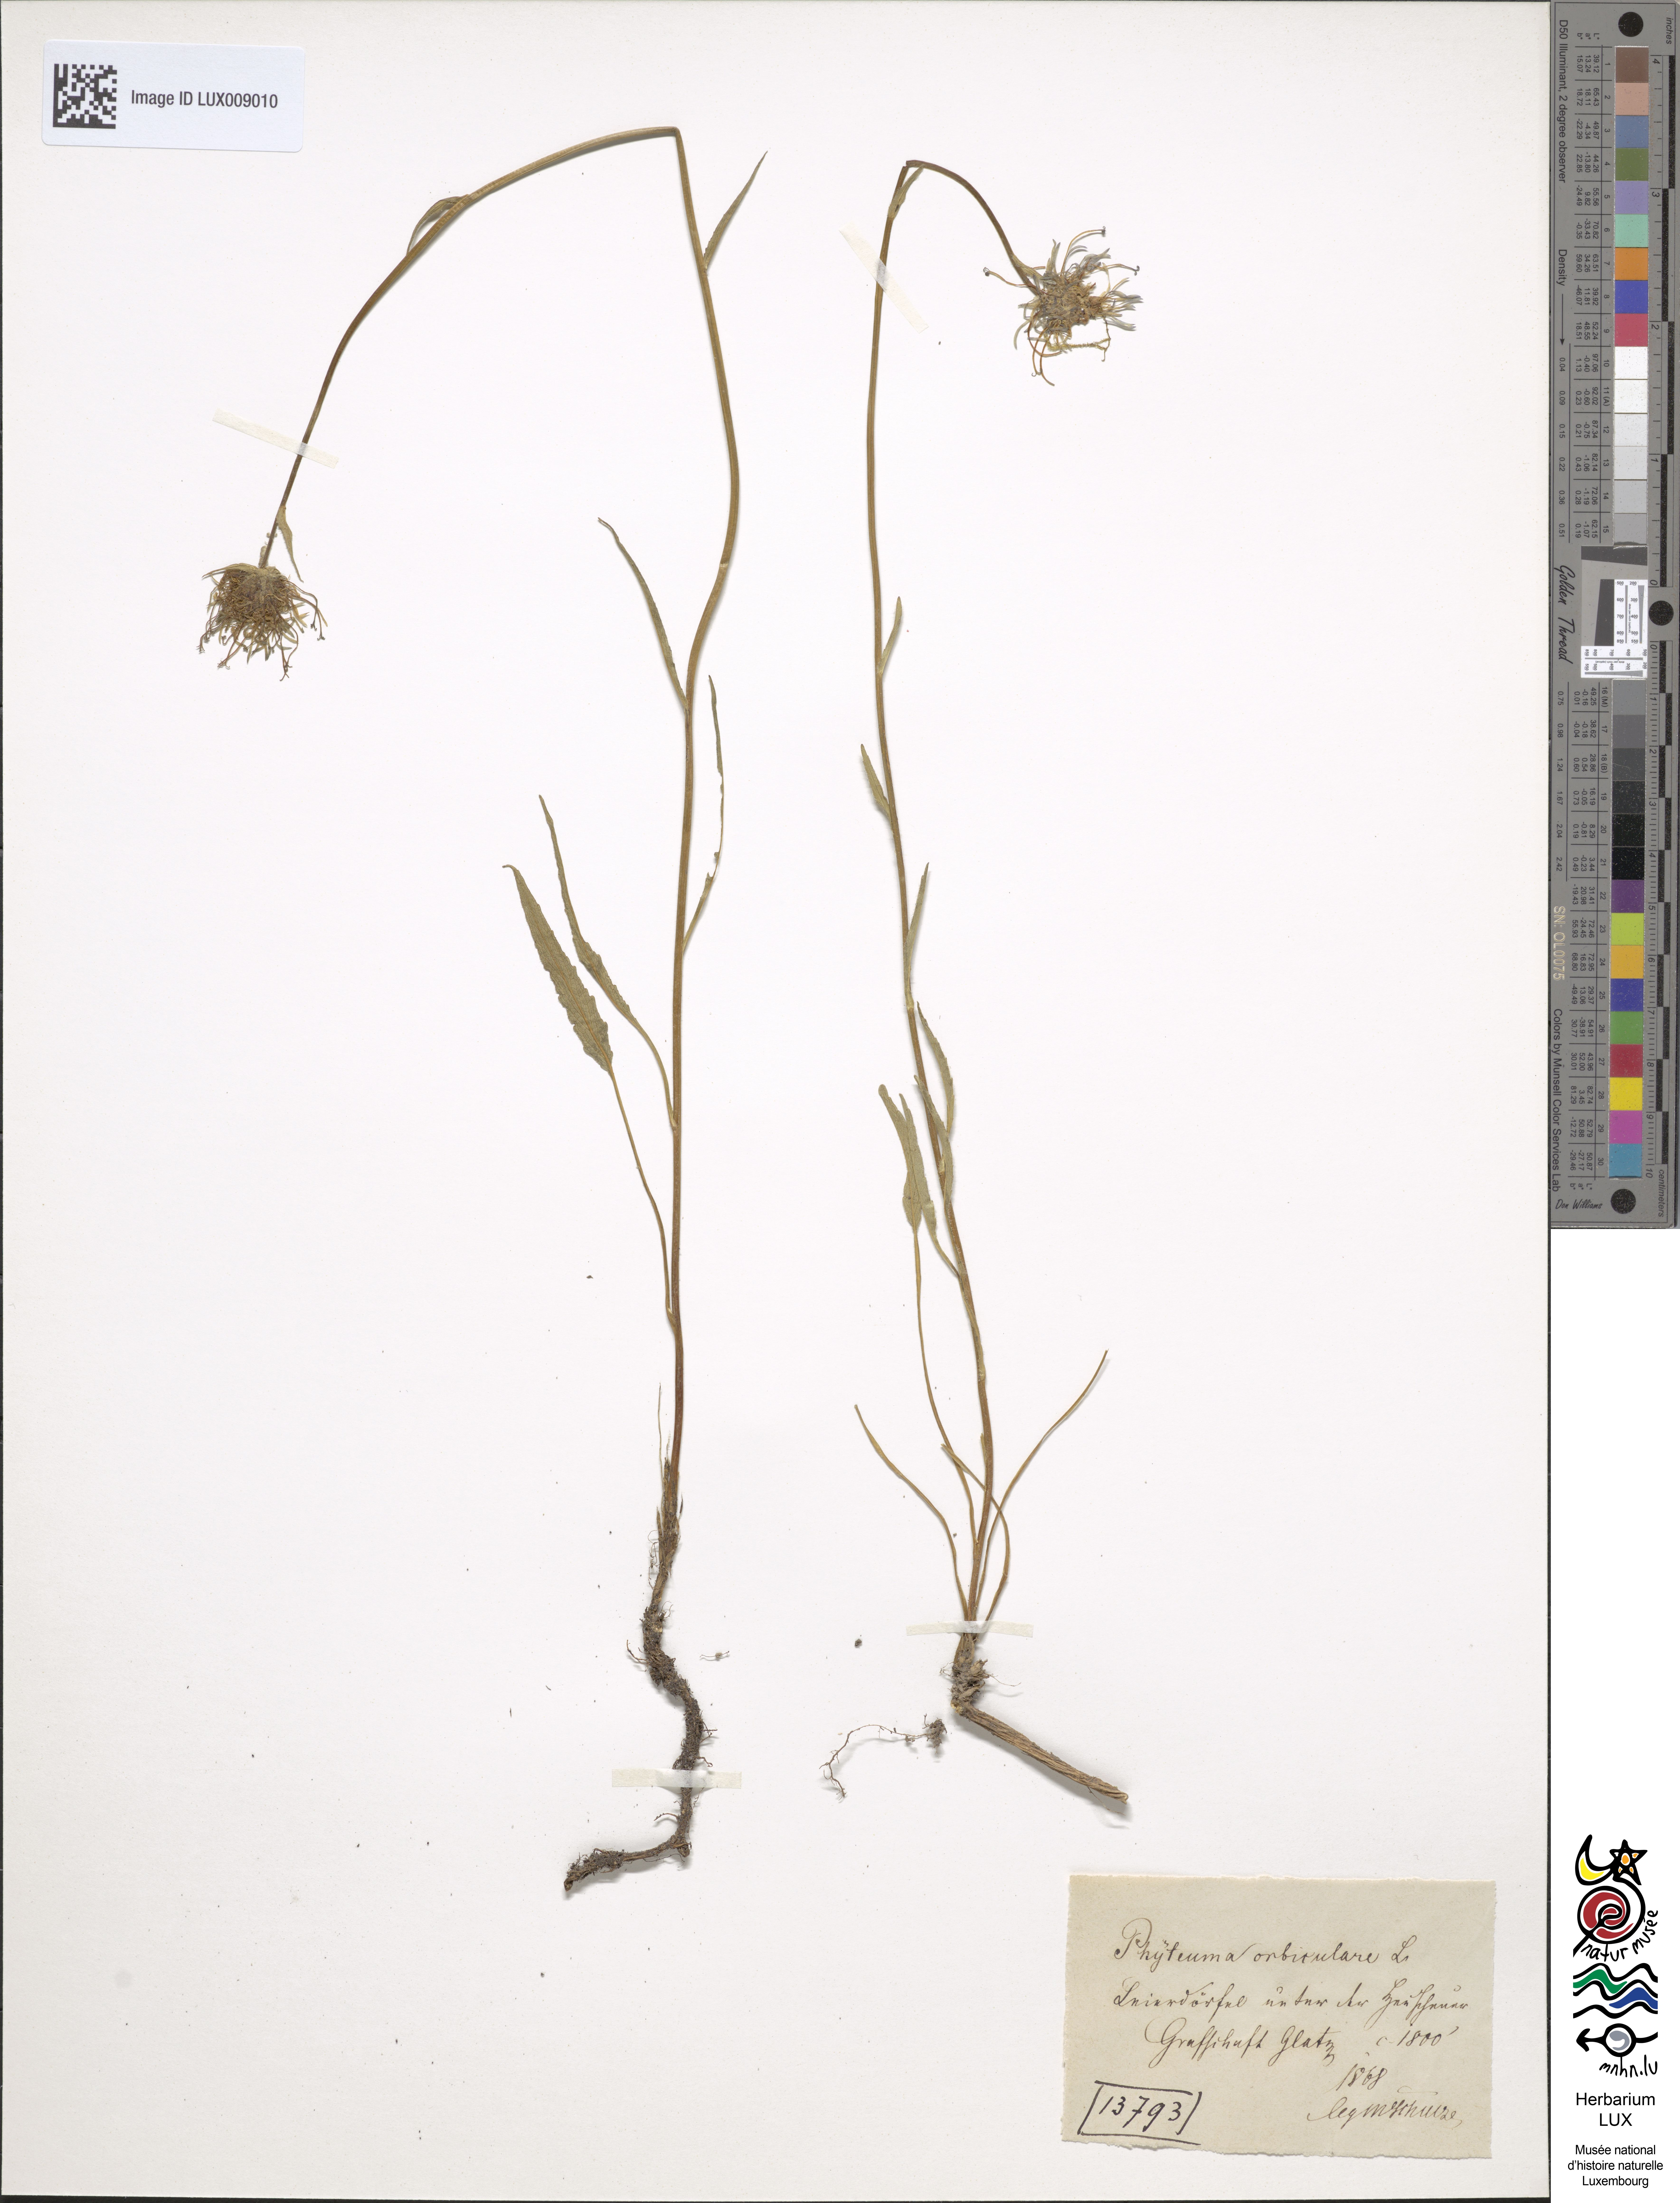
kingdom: Plantae
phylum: Tracheophyta
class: Magnoliopsida
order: Asterales
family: Campanulaceae
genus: Phyteuma
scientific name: Phyteuma orbiculare
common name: Round-headed rampion
